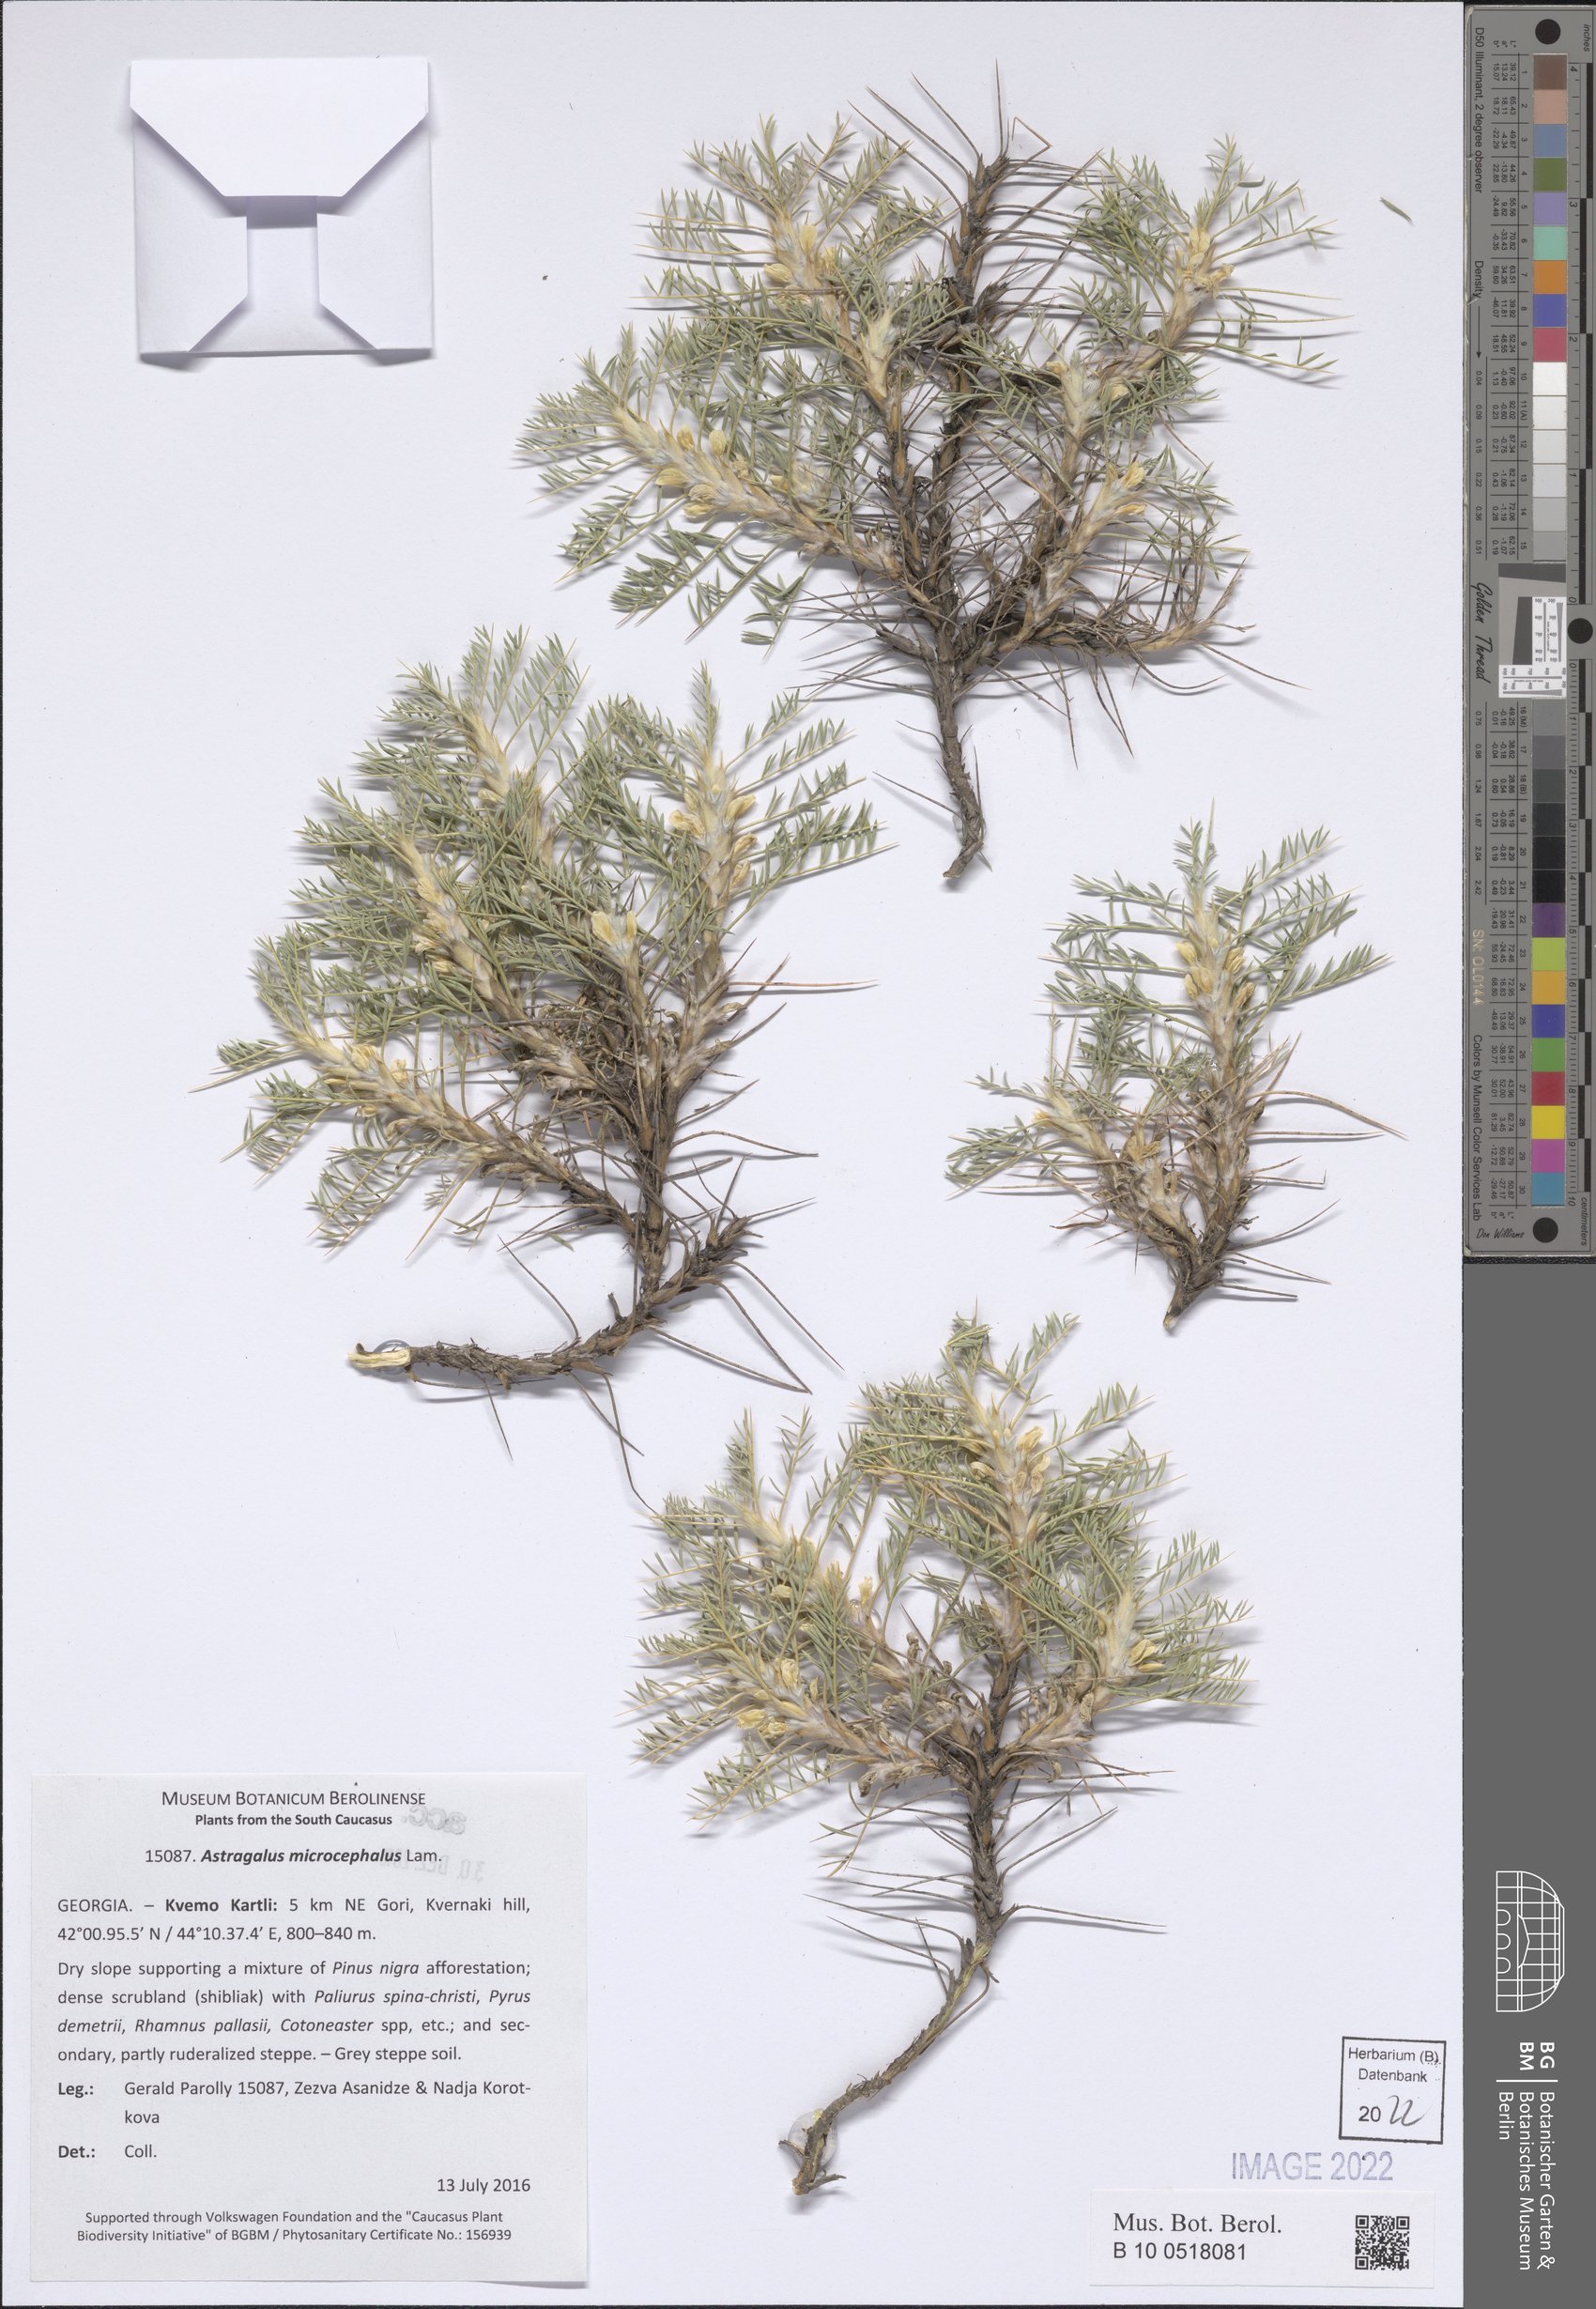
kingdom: Plantae
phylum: Tracheophyta
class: Magnoliopsida
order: Fabales
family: Fabaceae
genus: Astragalus
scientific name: Astragalus microcephalus
